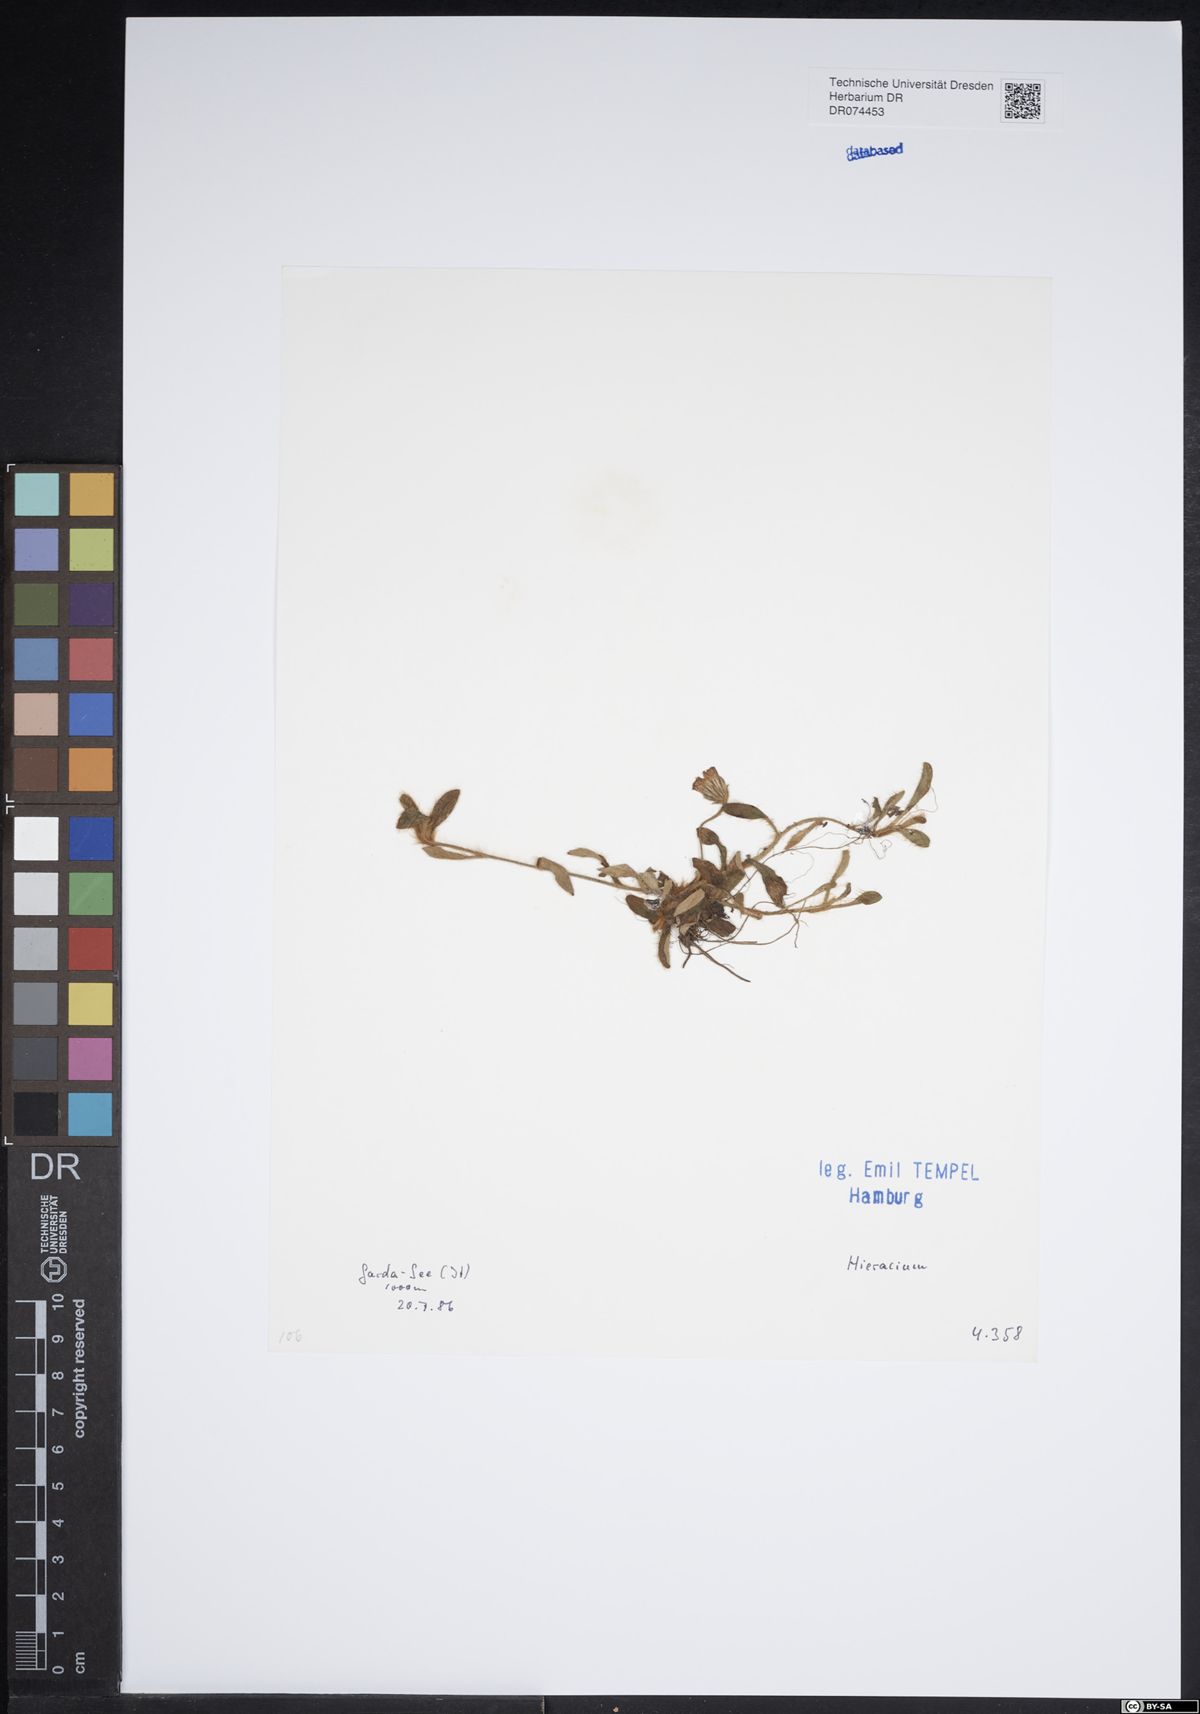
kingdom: Plantae
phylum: Tracheophyta
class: Magnoliopsida
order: Asterales
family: Asteraceae
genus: Hieracium
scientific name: Hieracium
